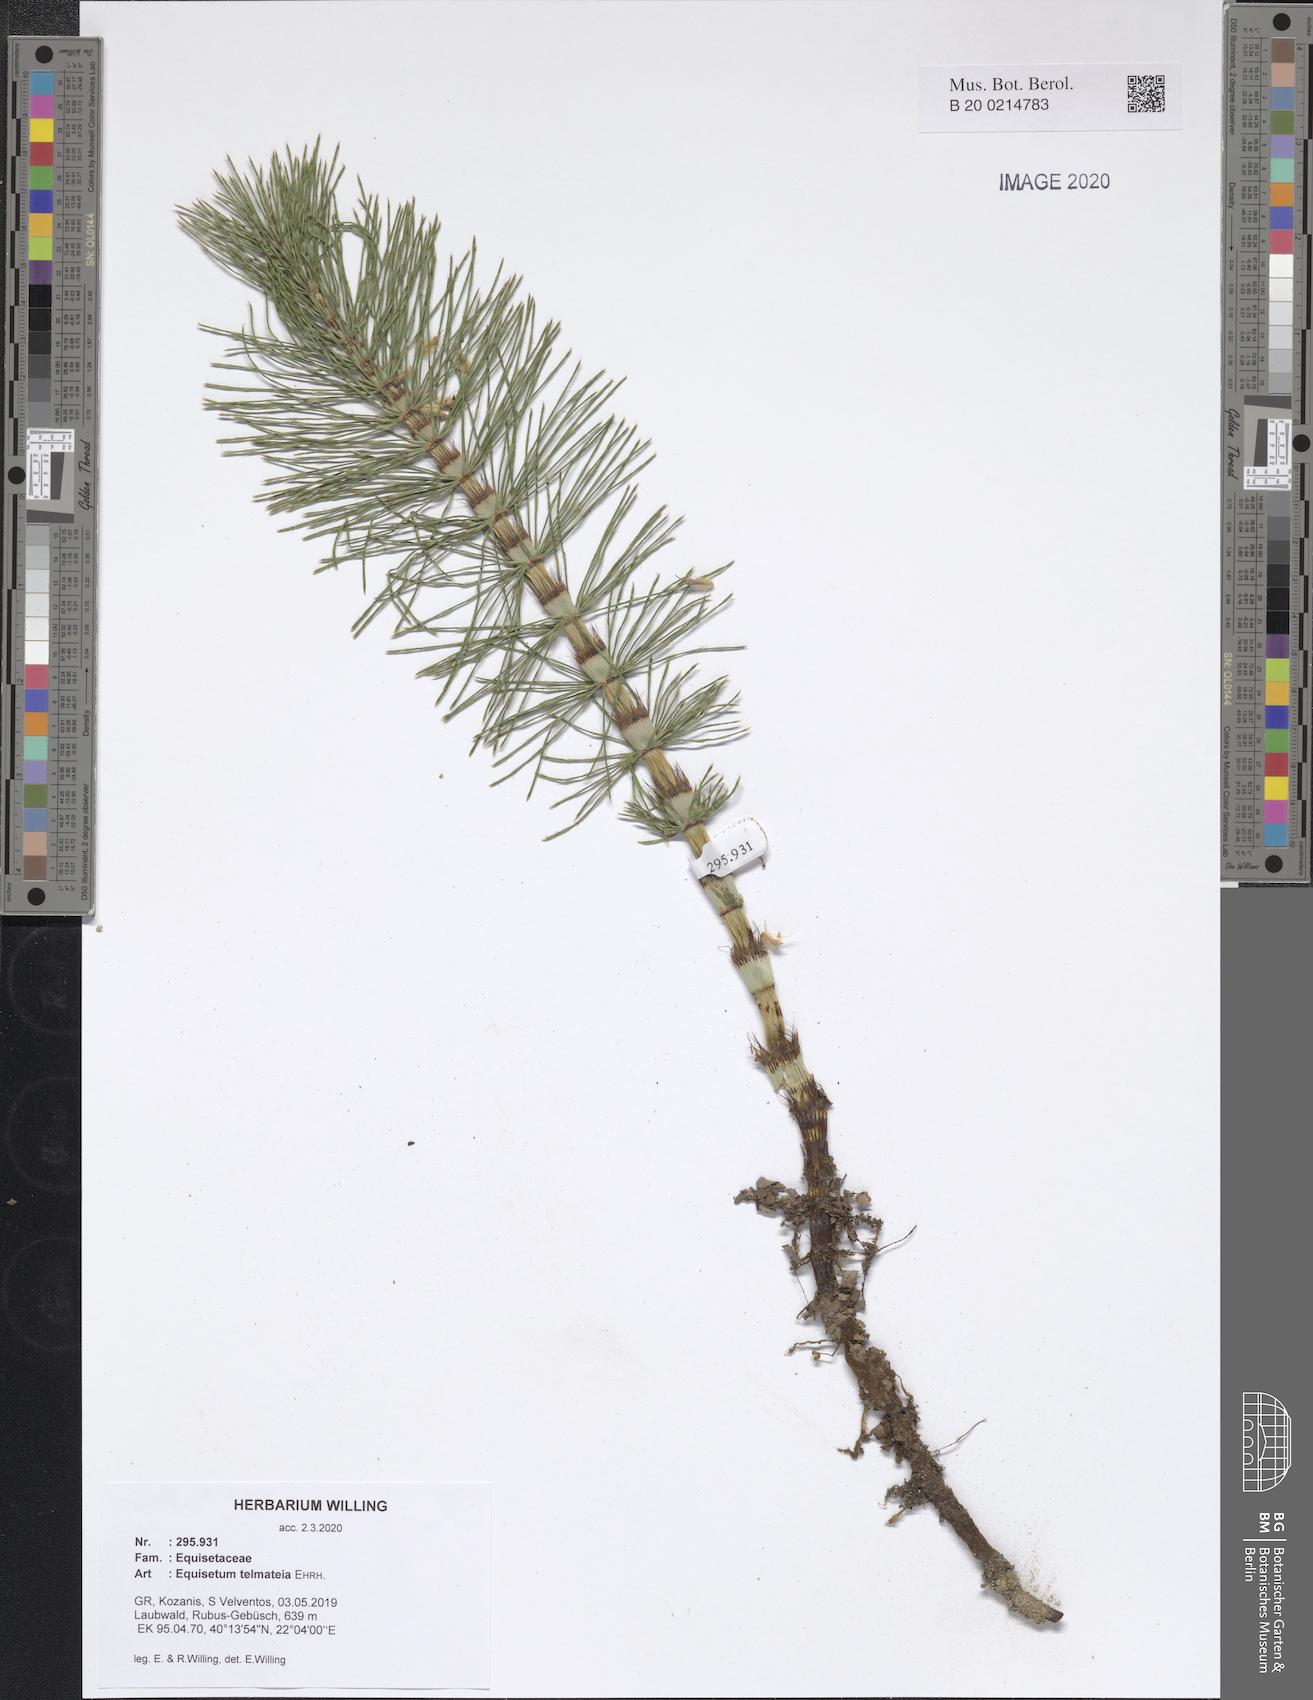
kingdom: Plantae
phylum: Tracheophyta
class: Polypodiopsida
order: Equisetales
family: Equisetaceae
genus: Equisetum
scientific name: Equisetum telmateia
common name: Great horsetail
